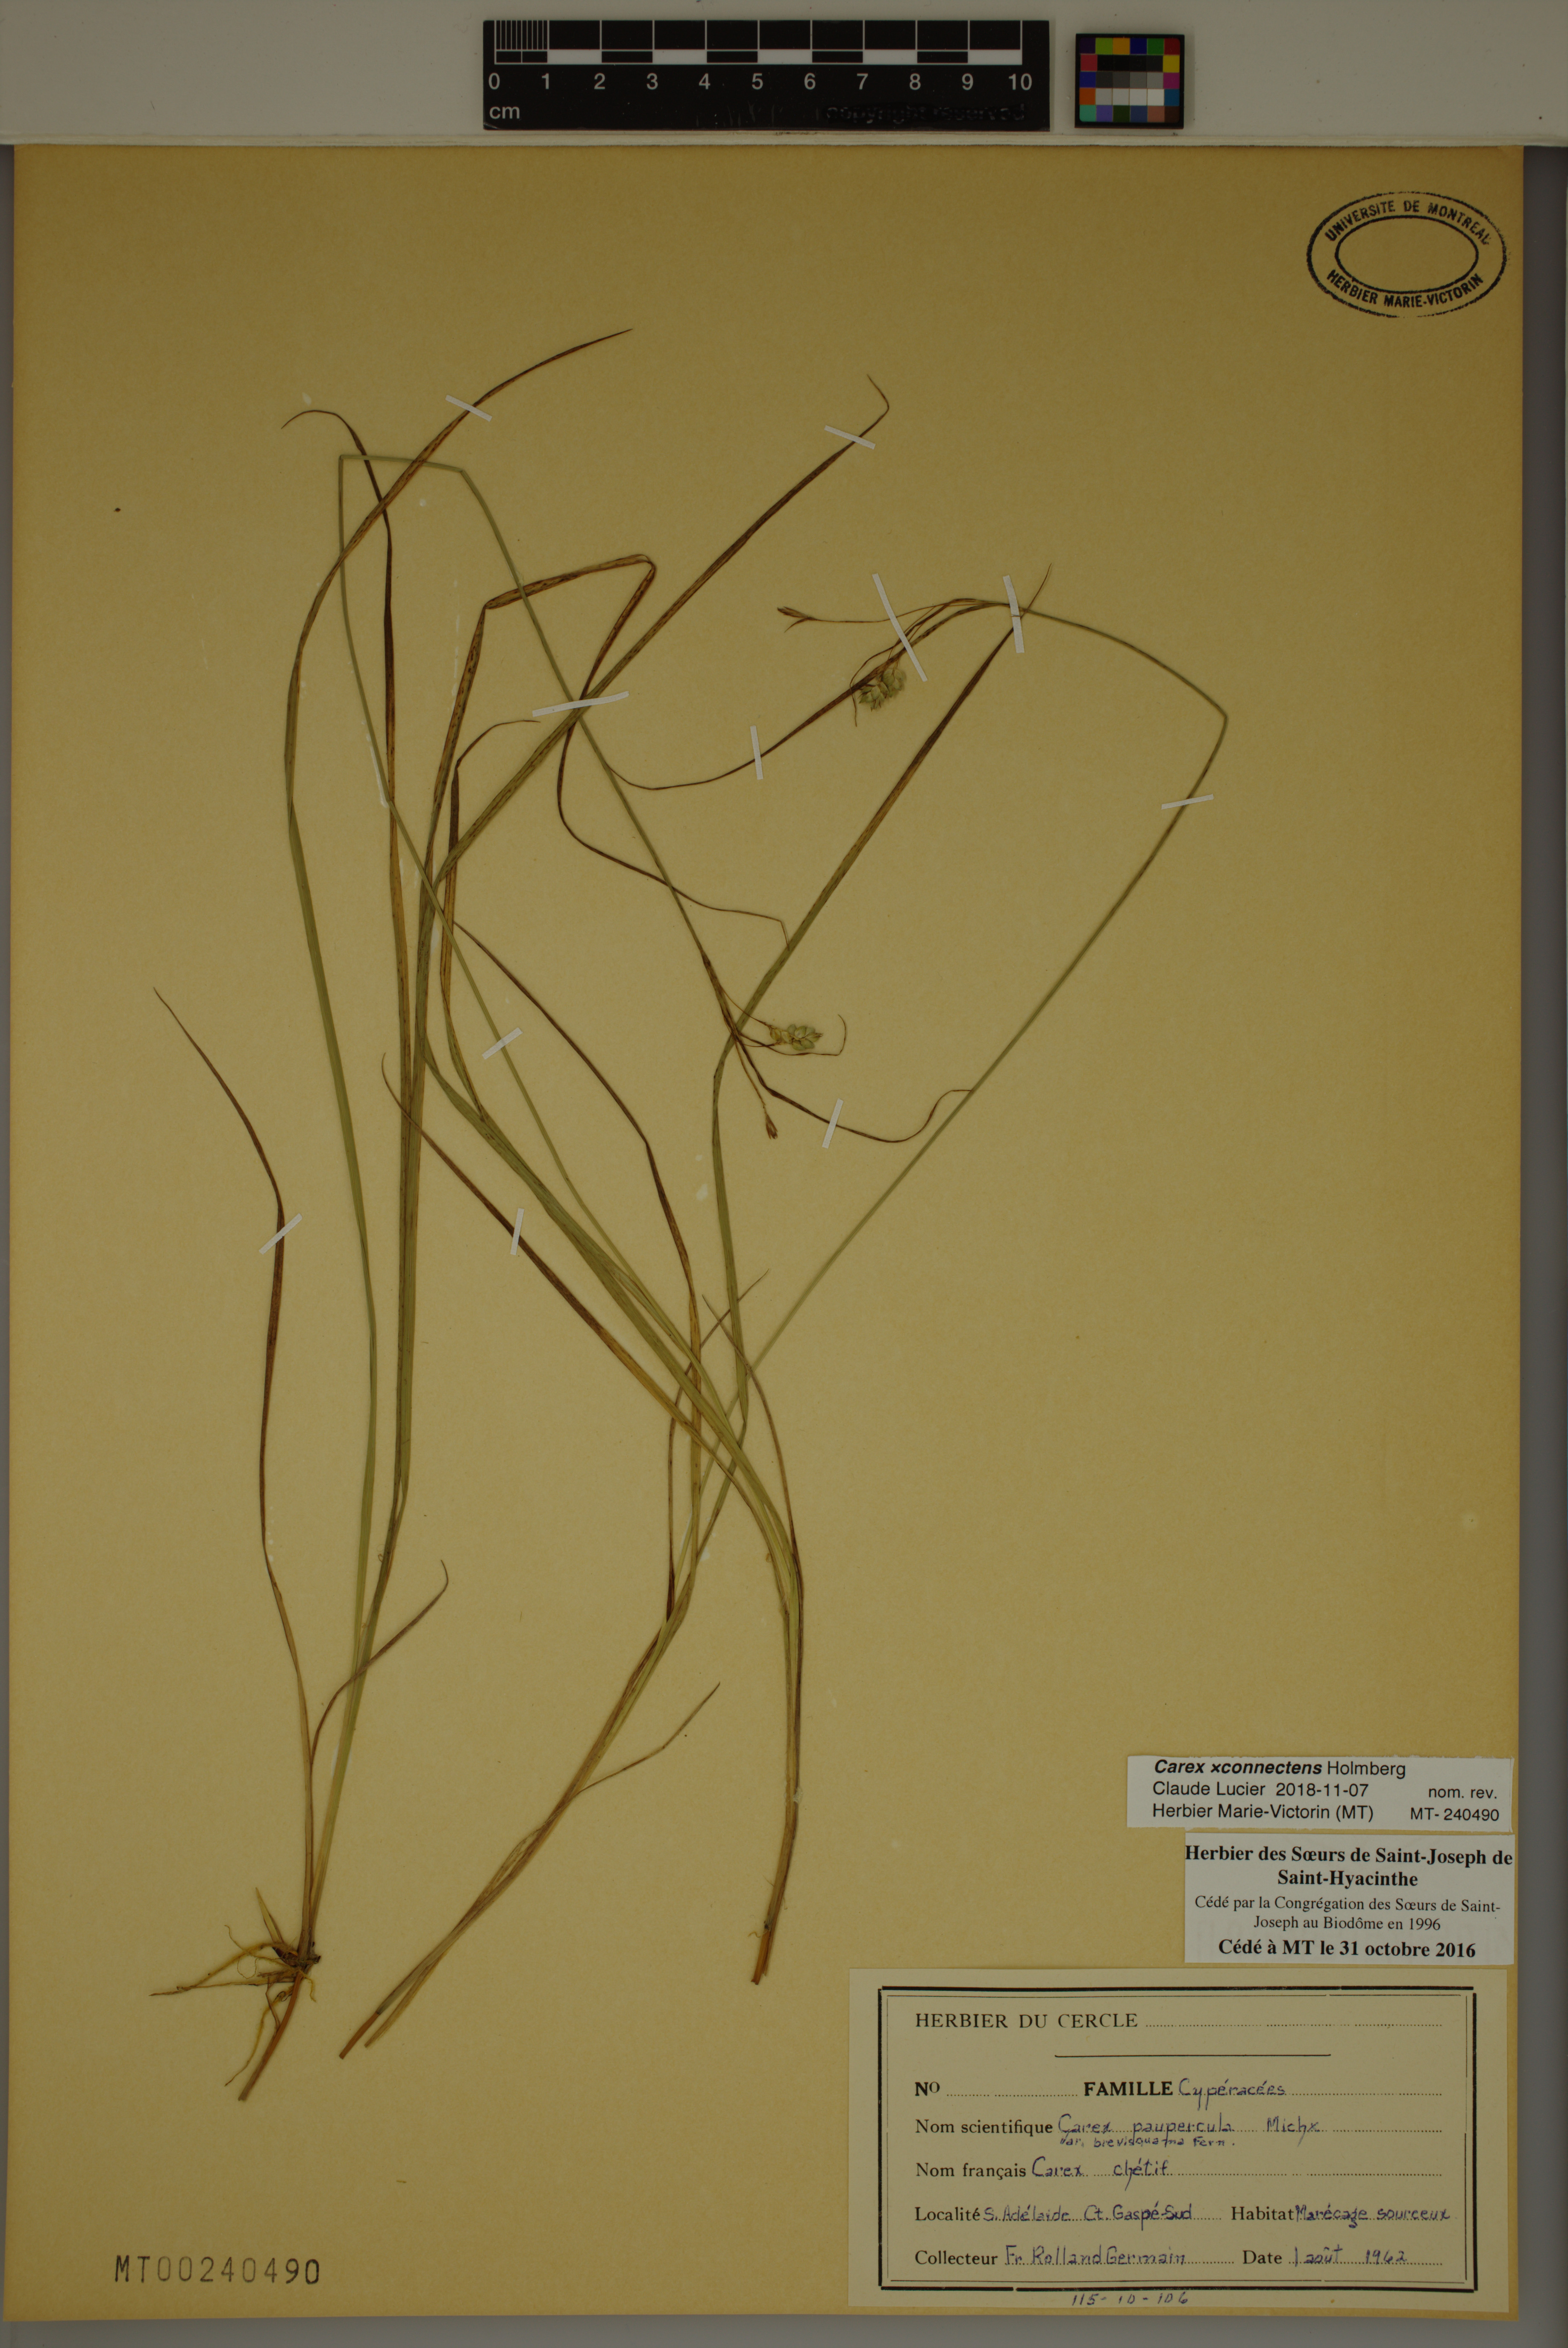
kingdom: Plantae
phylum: Tracheophyta
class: Liliopsida
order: Poales
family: Cyperaceae
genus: Carex
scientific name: Carex connectens
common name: Connect sedge
